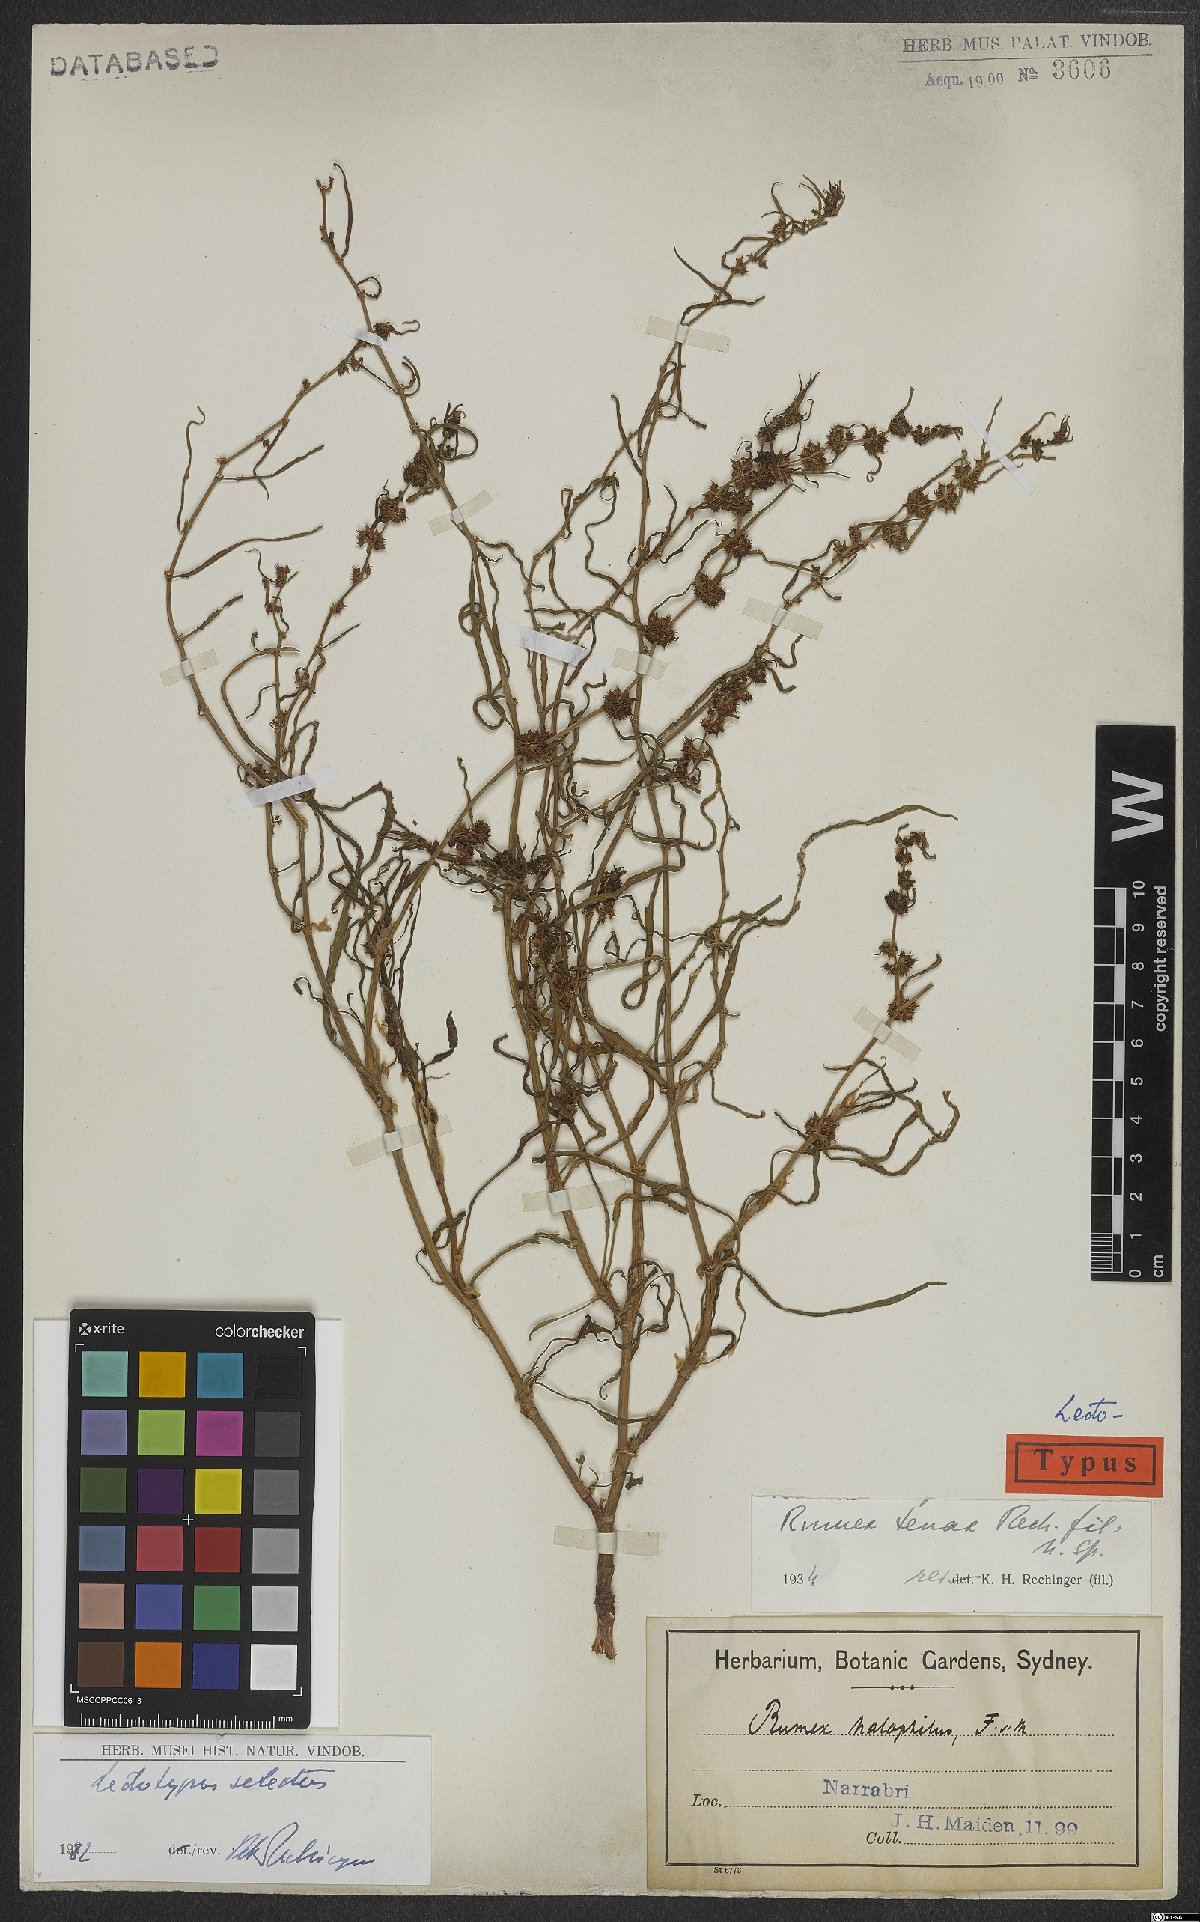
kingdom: Plantae
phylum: Tracheophyta
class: Magnoliopsida
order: Caryophyllales
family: Polygonaceae
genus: Rumex
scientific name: Rumex tenax
